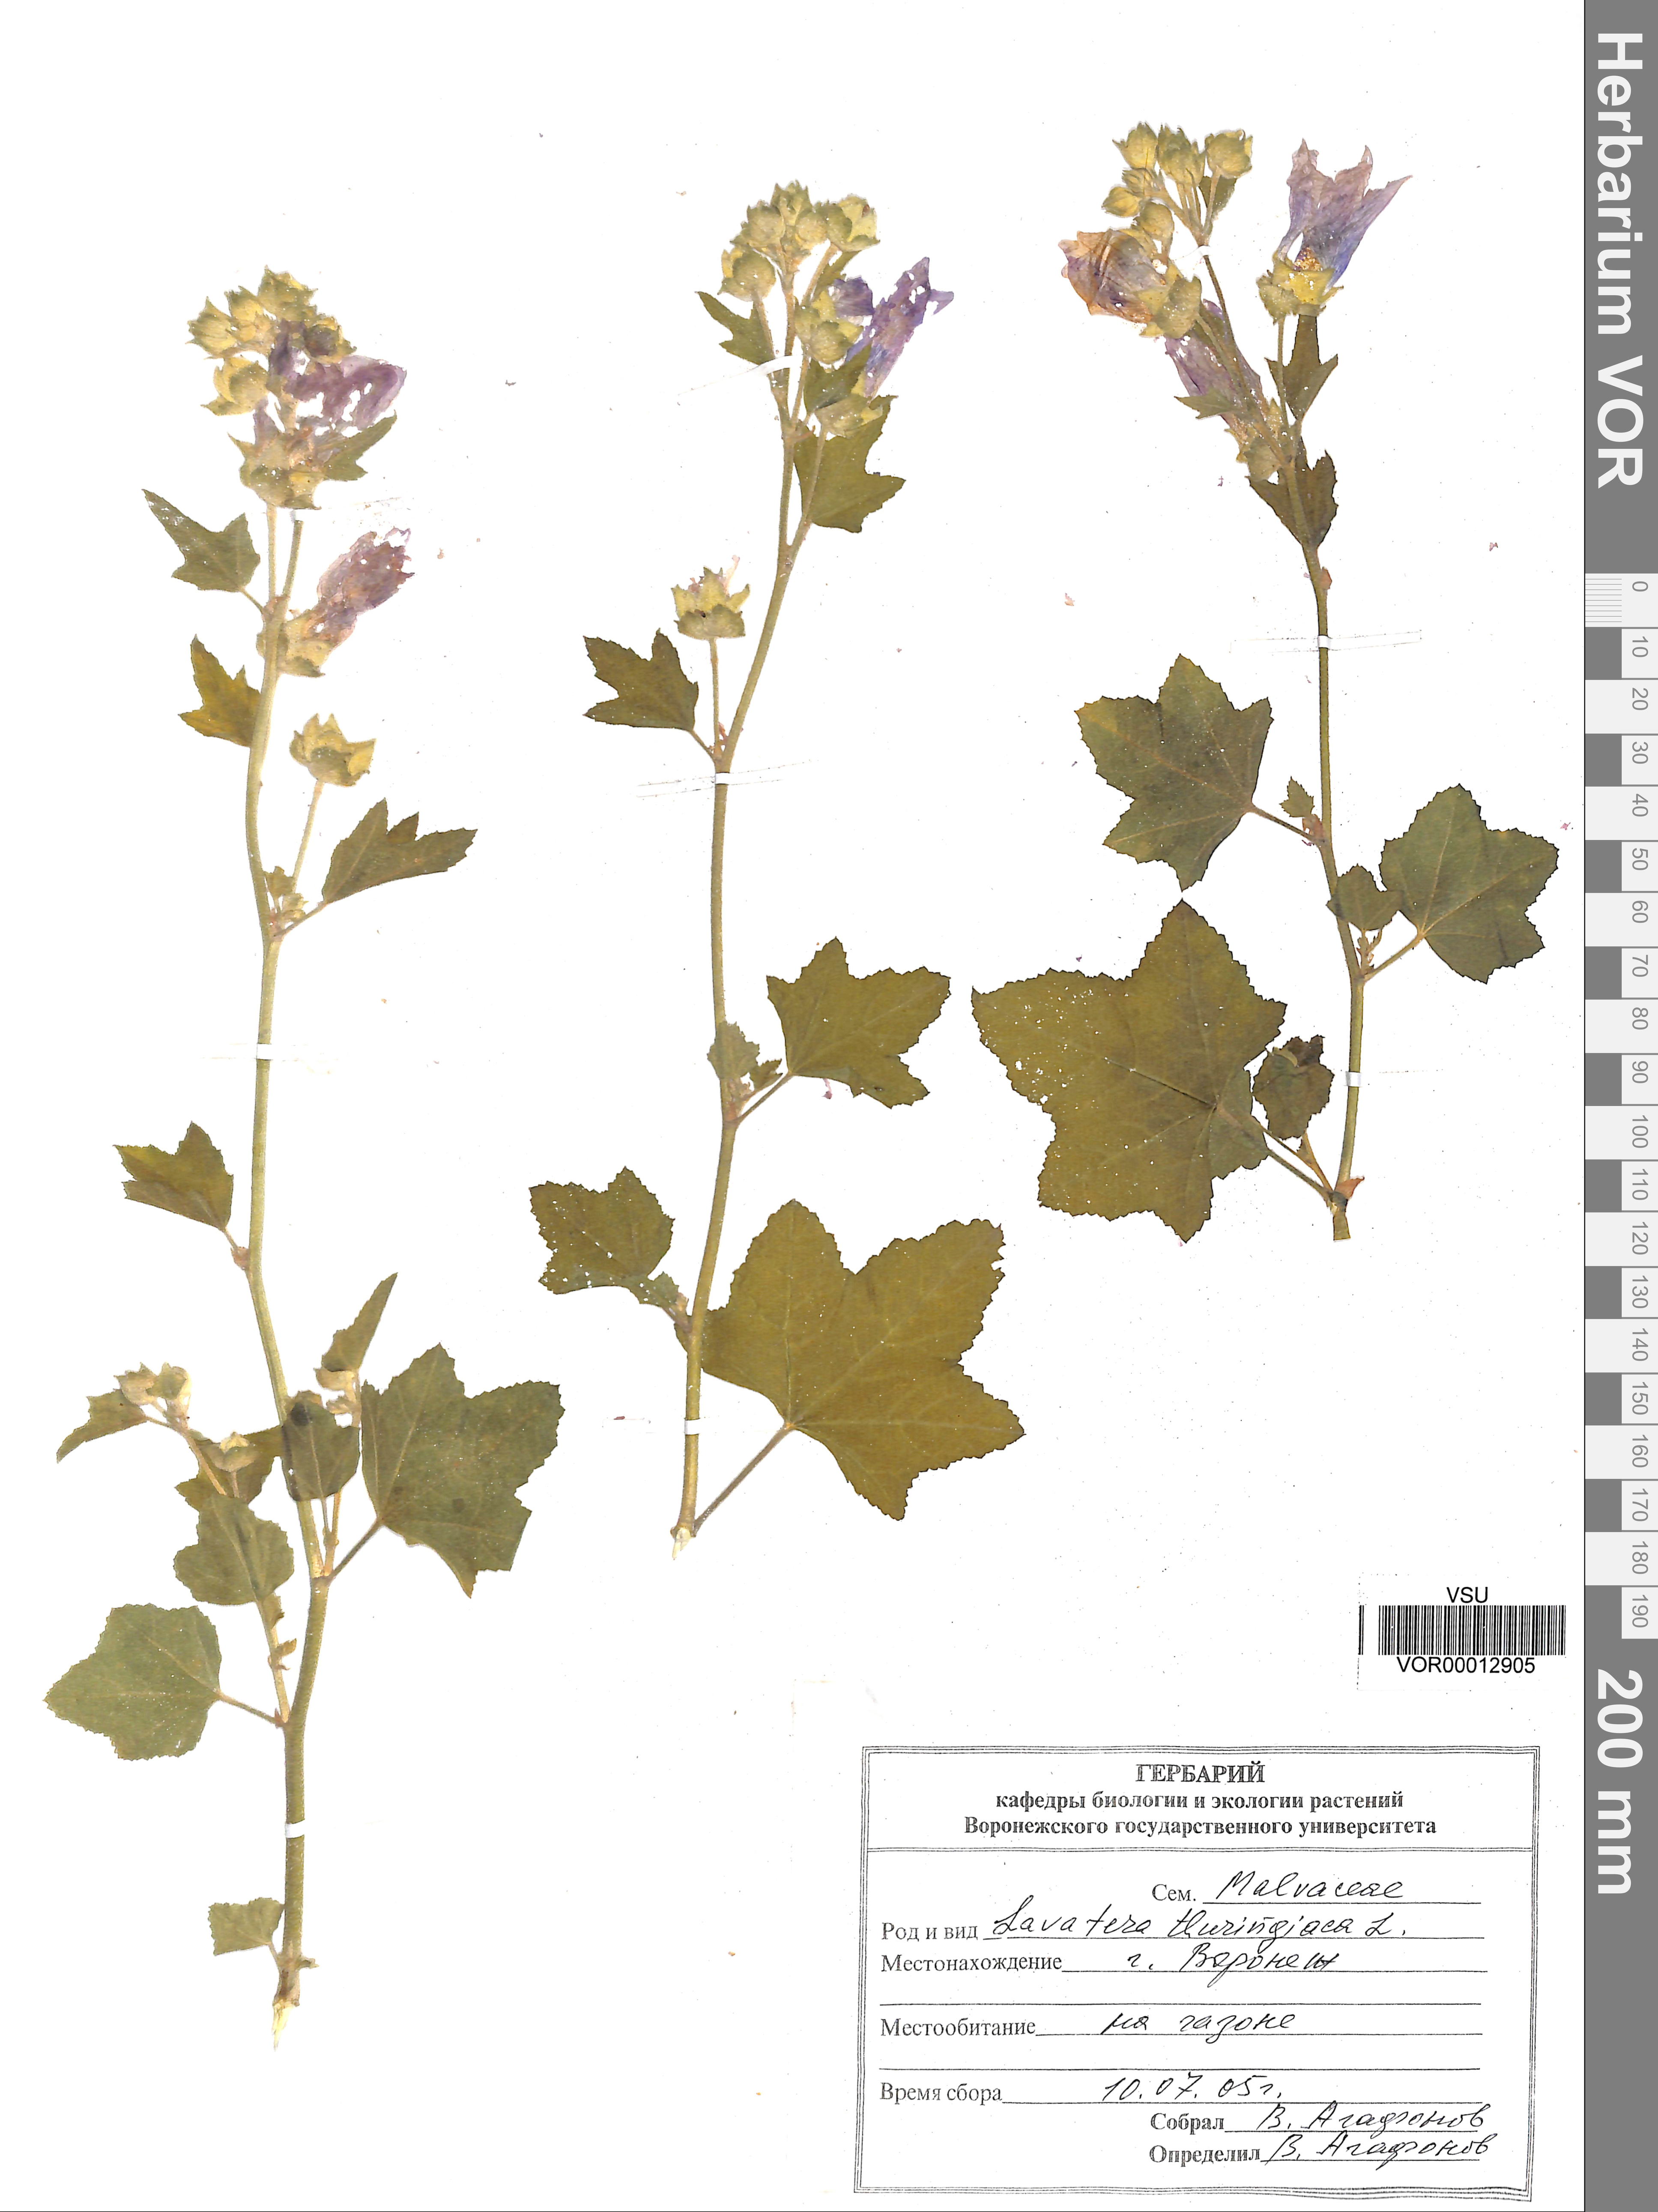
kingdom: Plantae
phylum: Tracheophyta
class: Magnoliopsida
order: Malvales
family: Malvaceae
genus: Malva
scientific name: Malva thuringiaca
